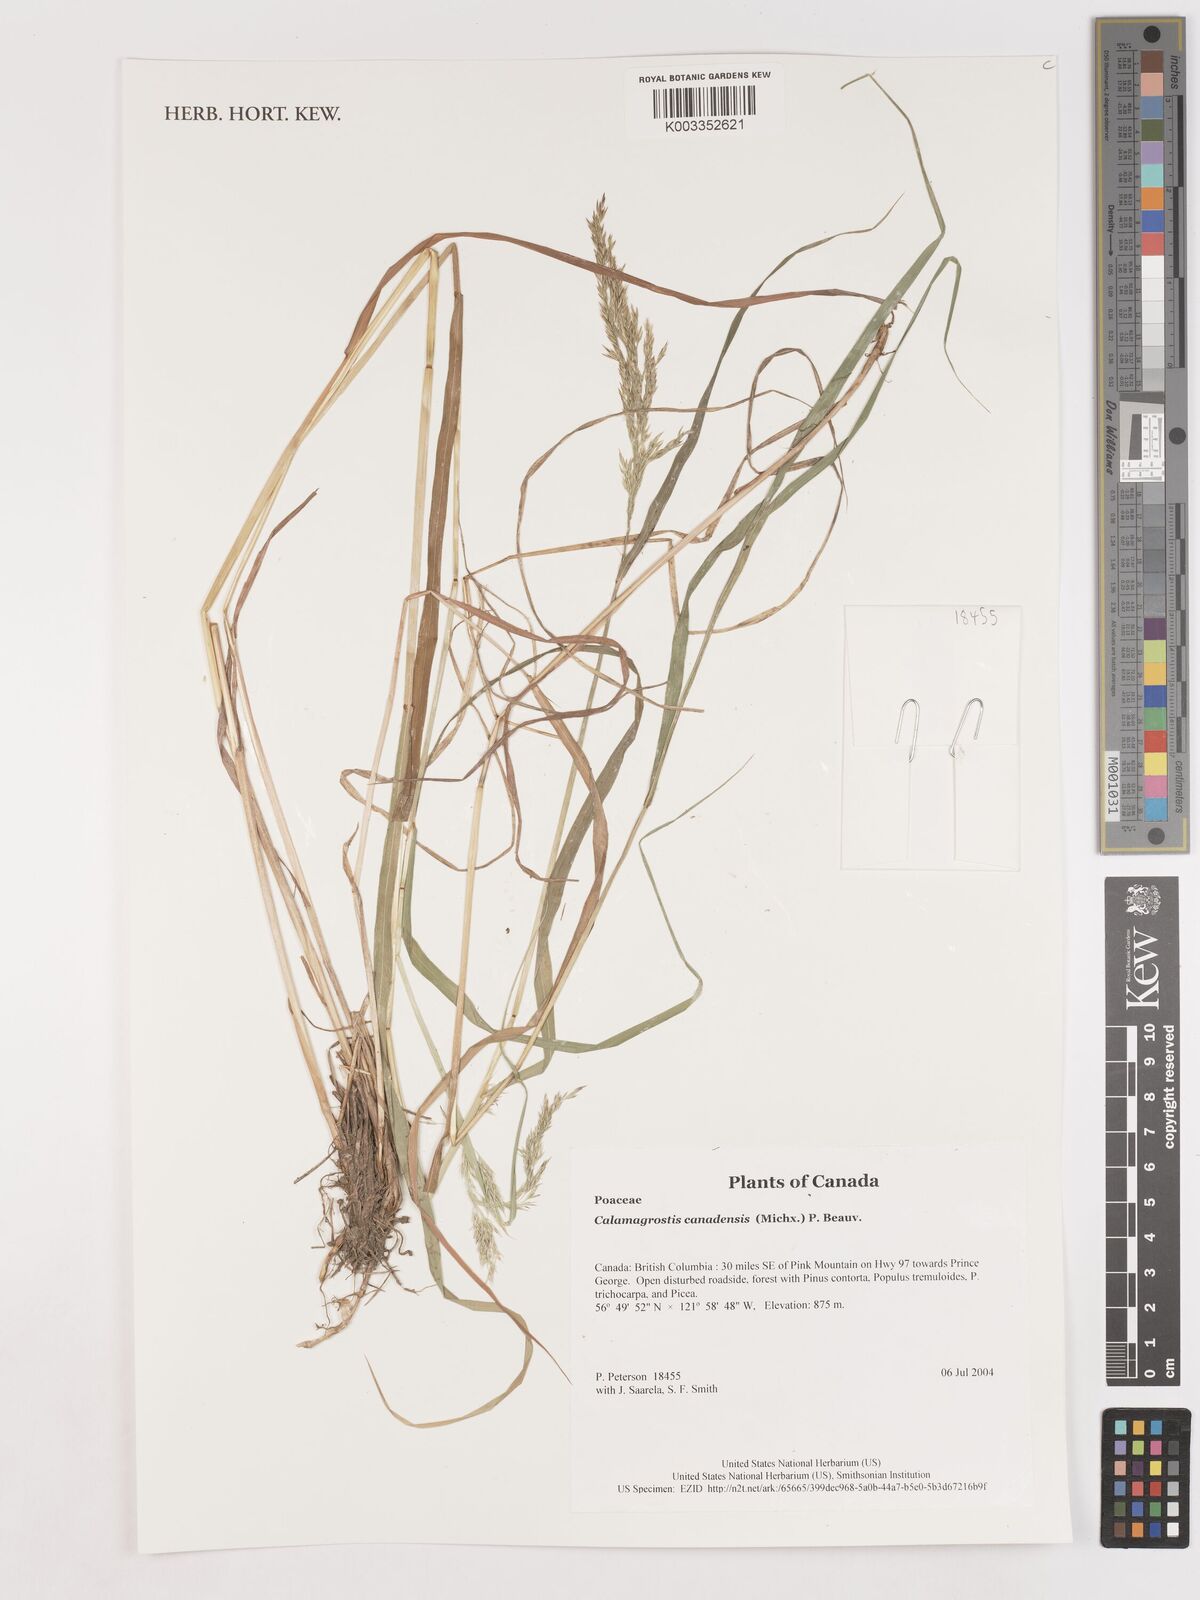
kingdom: Plantae
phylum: Tracheophyta
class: Liliopsida
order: Poales
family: Poaceae
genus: Calamagrostis
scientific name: Calamagrostis canadensis
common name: Canada bluejoint
